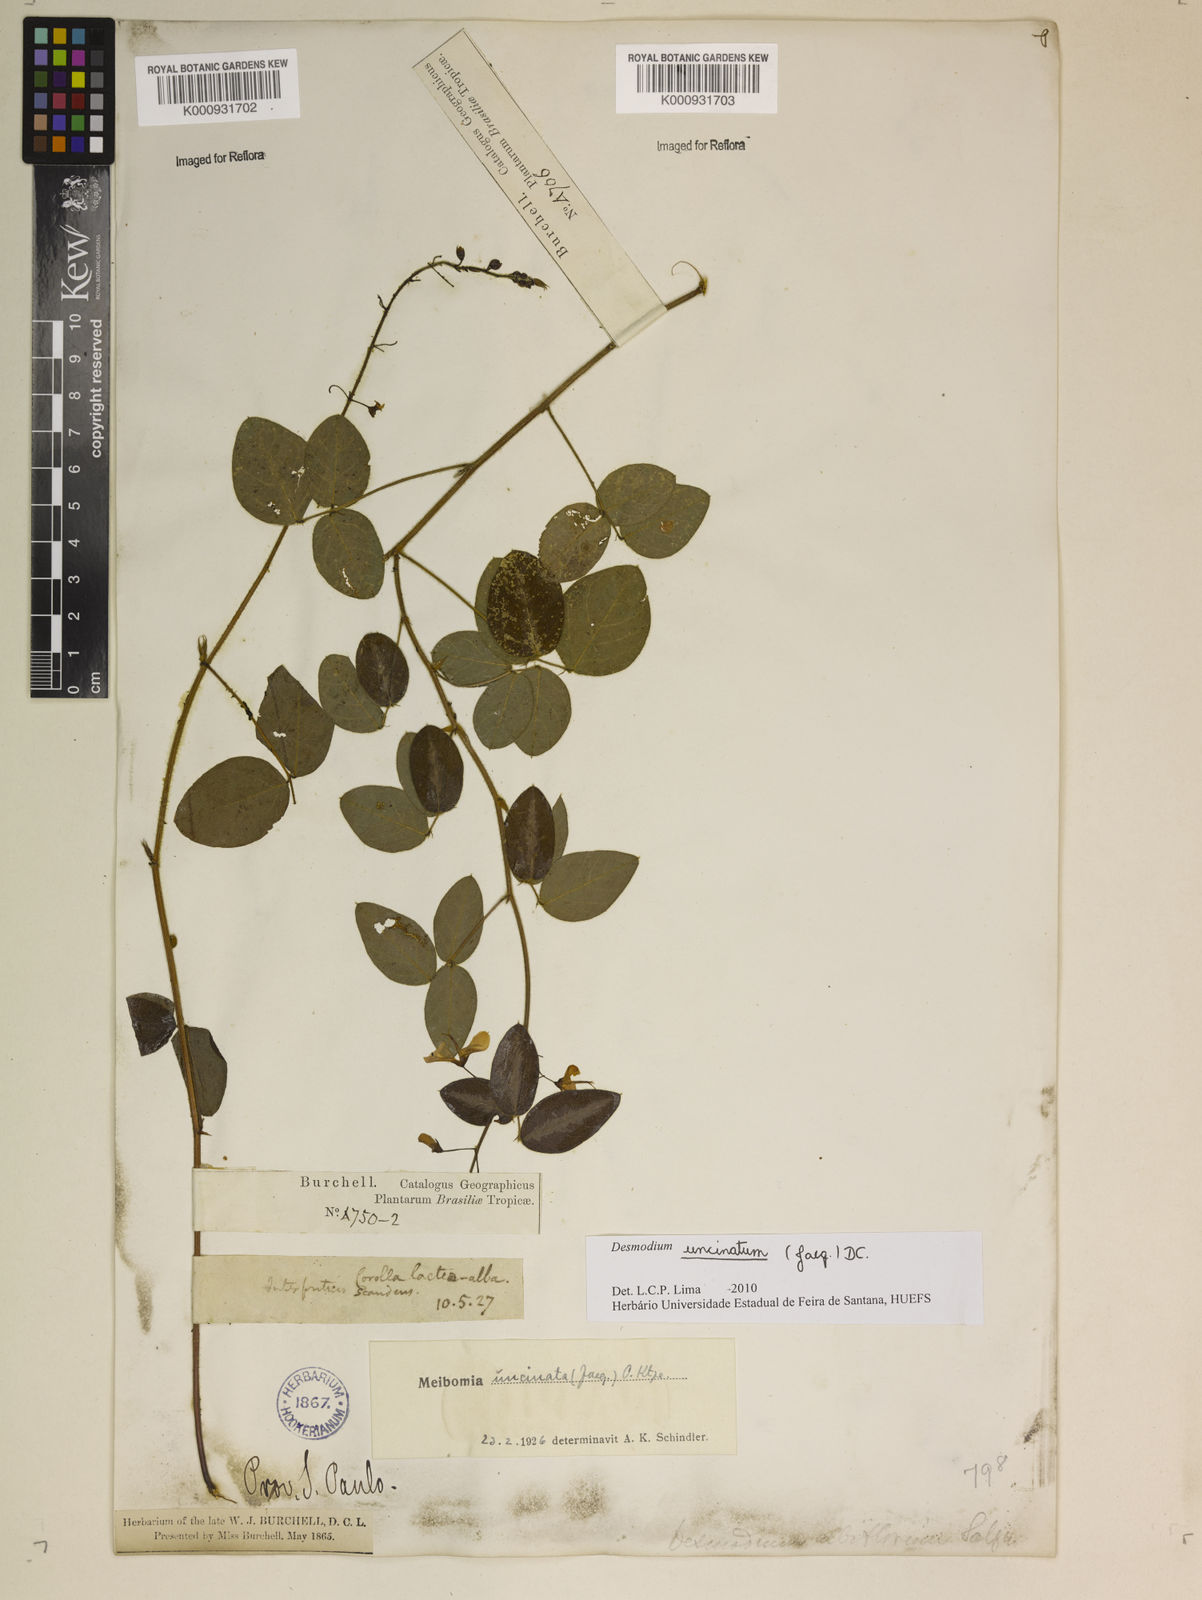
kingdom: Plantae
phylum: Tracheophyta
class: Magnoliopsida
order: Fabales
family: Fabaceae
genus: Desmodium
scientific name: Desmodium uncinatum
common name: Silverleaf desmodium
